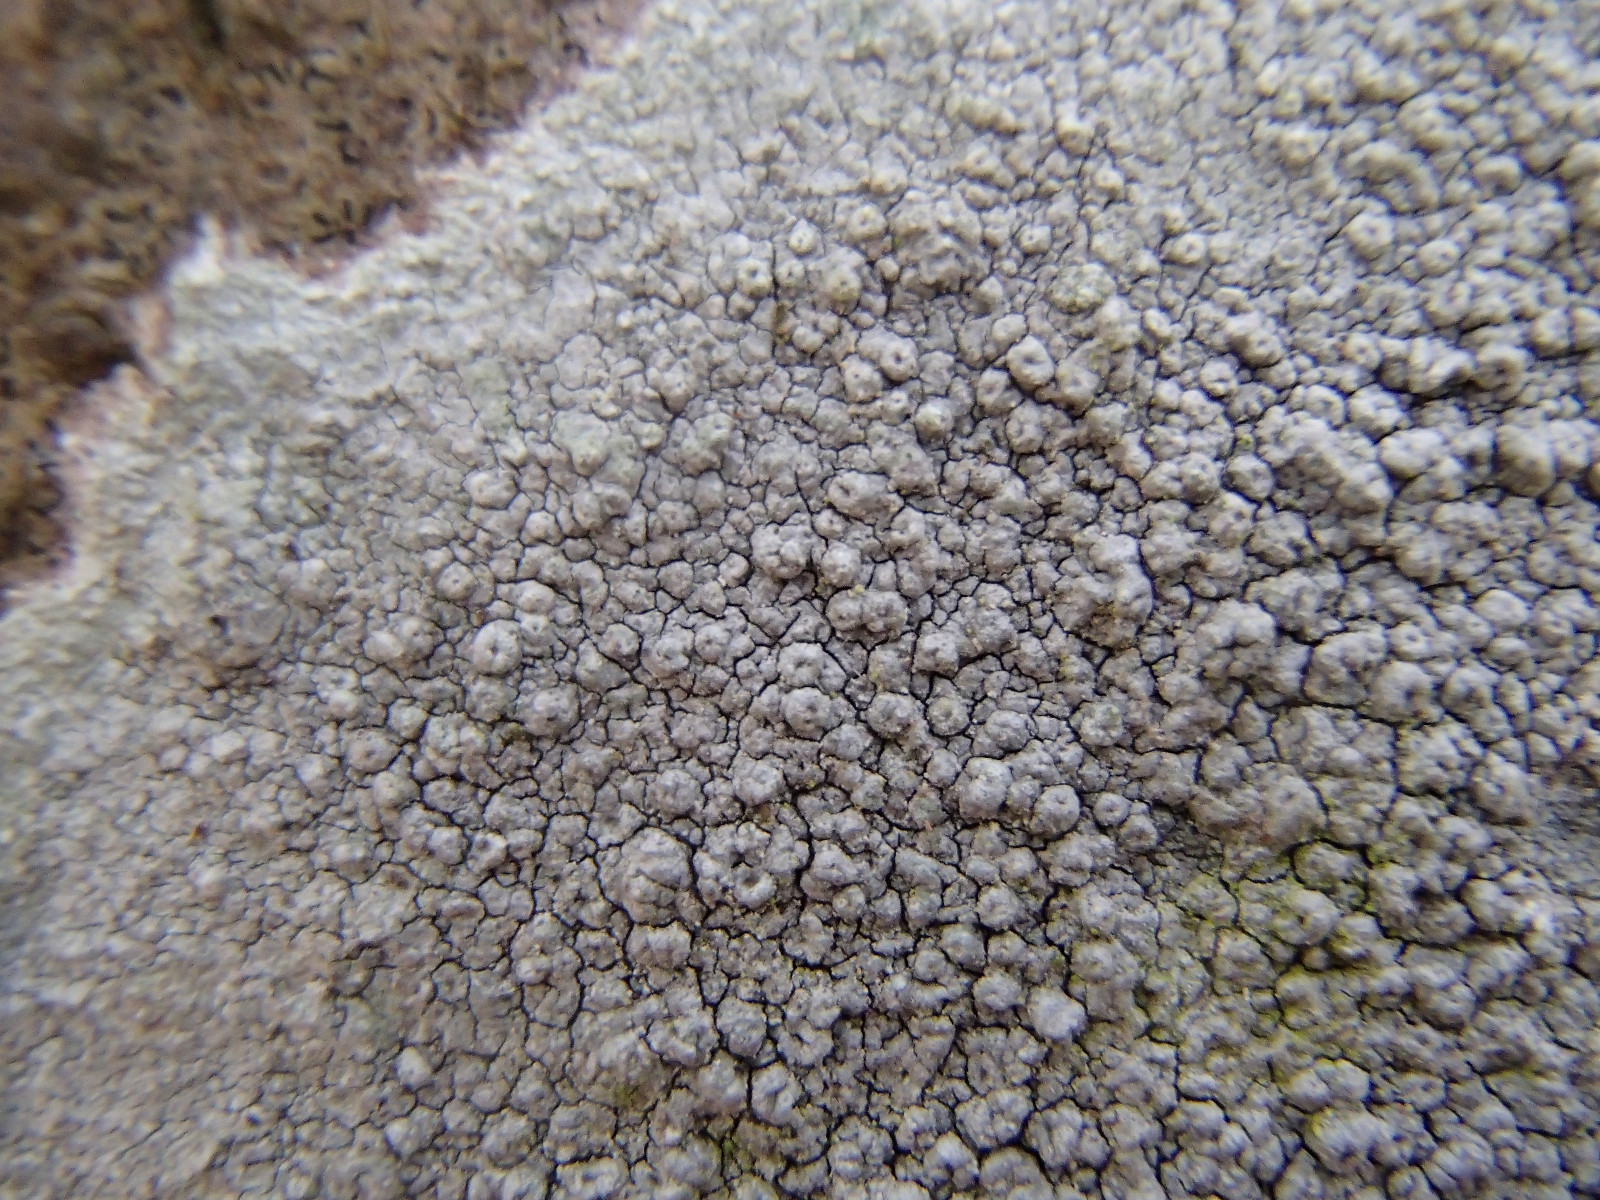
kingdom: Fungi
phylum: Ascomycota
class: Lecanoromycetes
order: Pertusariales
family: Pertusariaceae
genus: Pertusaria
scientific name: Pertusaria hymenea
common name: åben prikvortelav
